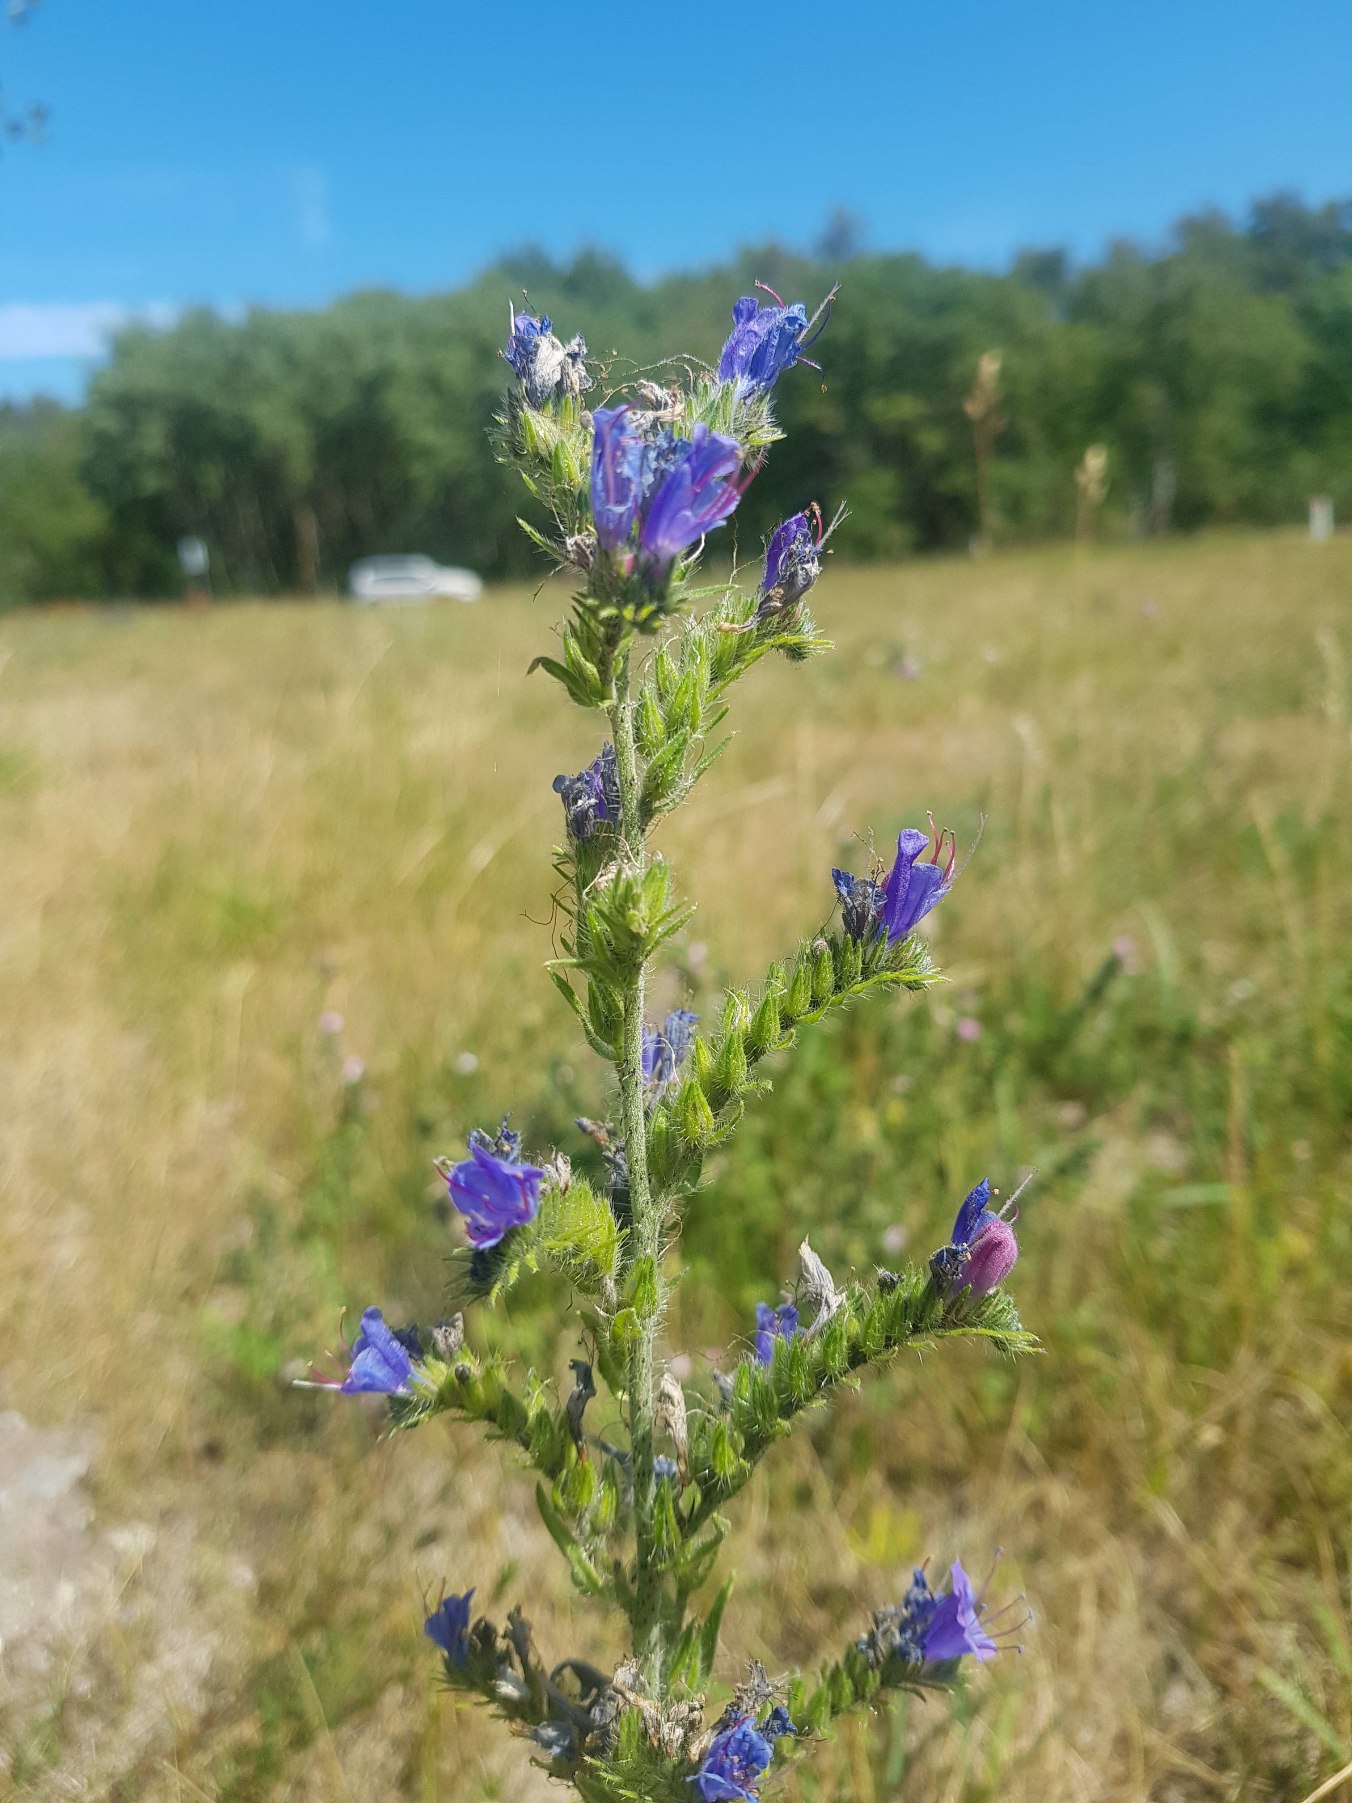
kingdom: Plantae
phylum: Tracheophyta
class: Magnoliopsida
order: Boraginales
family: Boraginaceae
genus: Echium
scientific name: Echium vulgare
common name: Slangehoved
